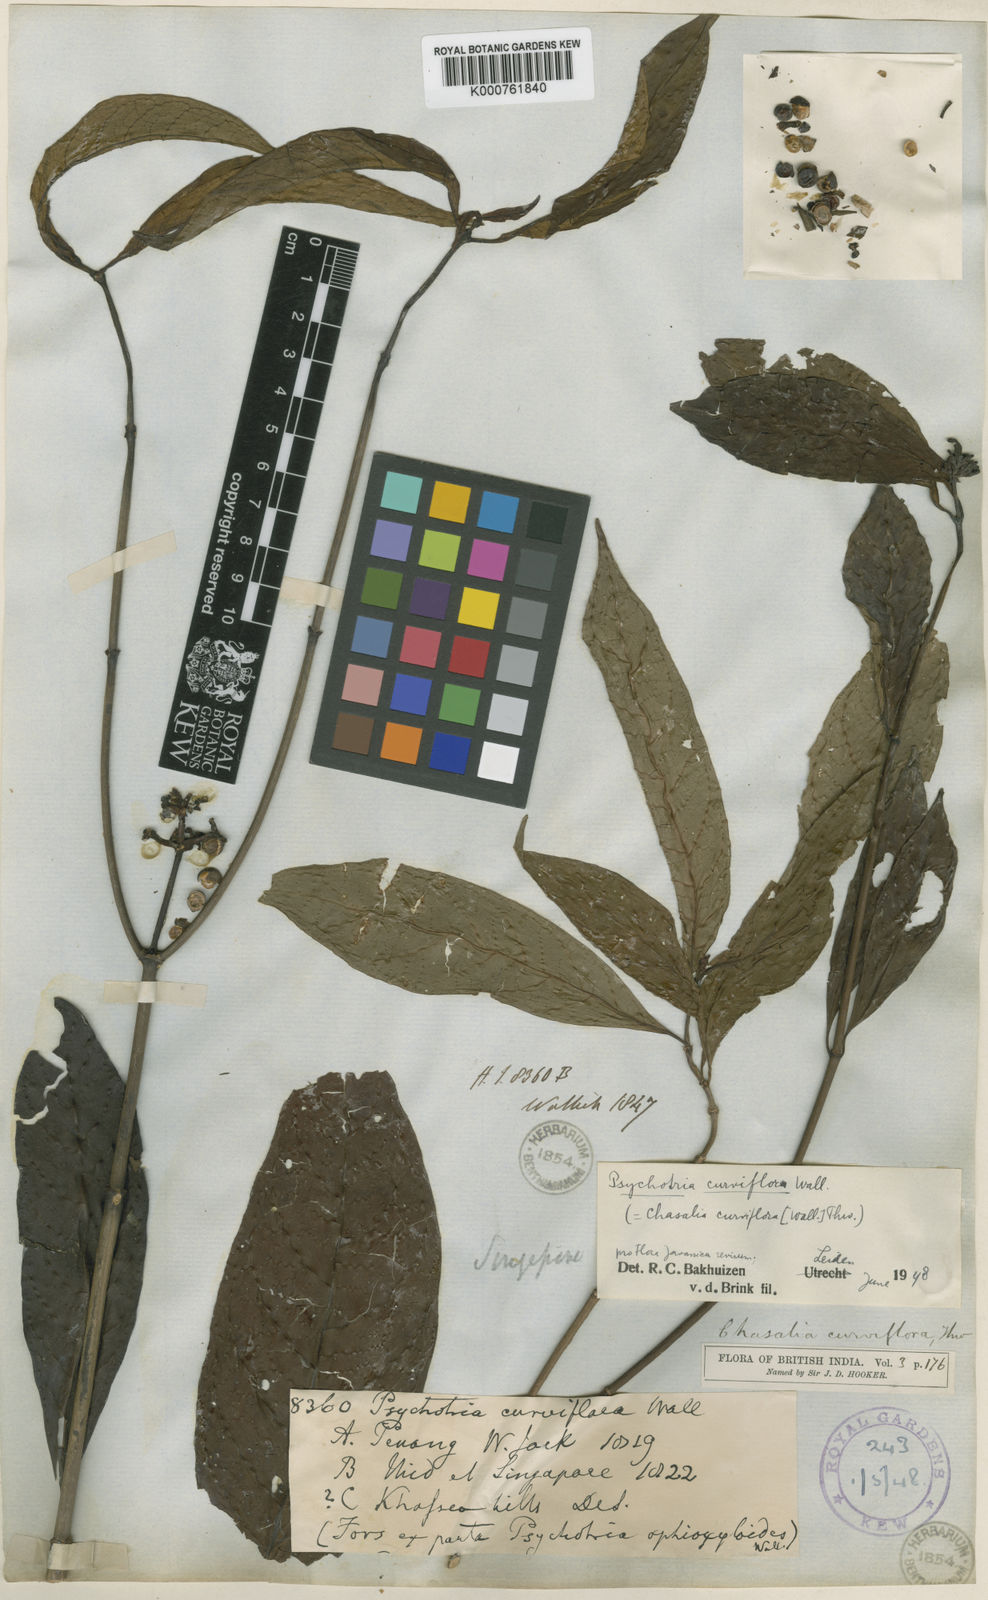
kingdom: Plantae
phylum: Tracheophyta
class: Magnoliopsida
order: Gentianales
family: Rubiaceae
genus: Chassalia
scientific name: Chassalia curviflora
